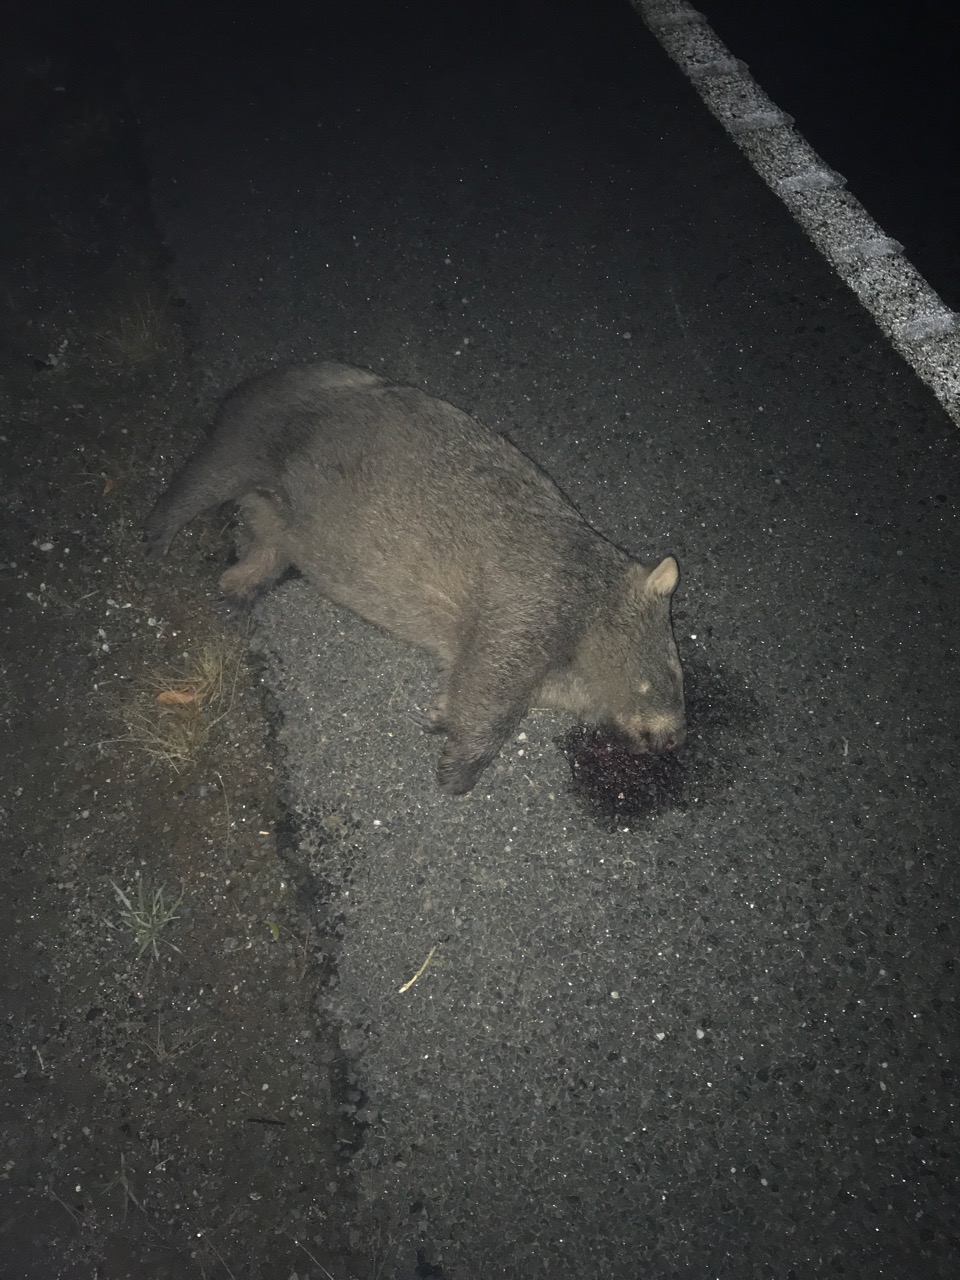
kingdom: Animalia
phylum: Chordata
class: Mammalia
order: Diprotodontia
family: Vombatidae
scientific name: Vombatidae
